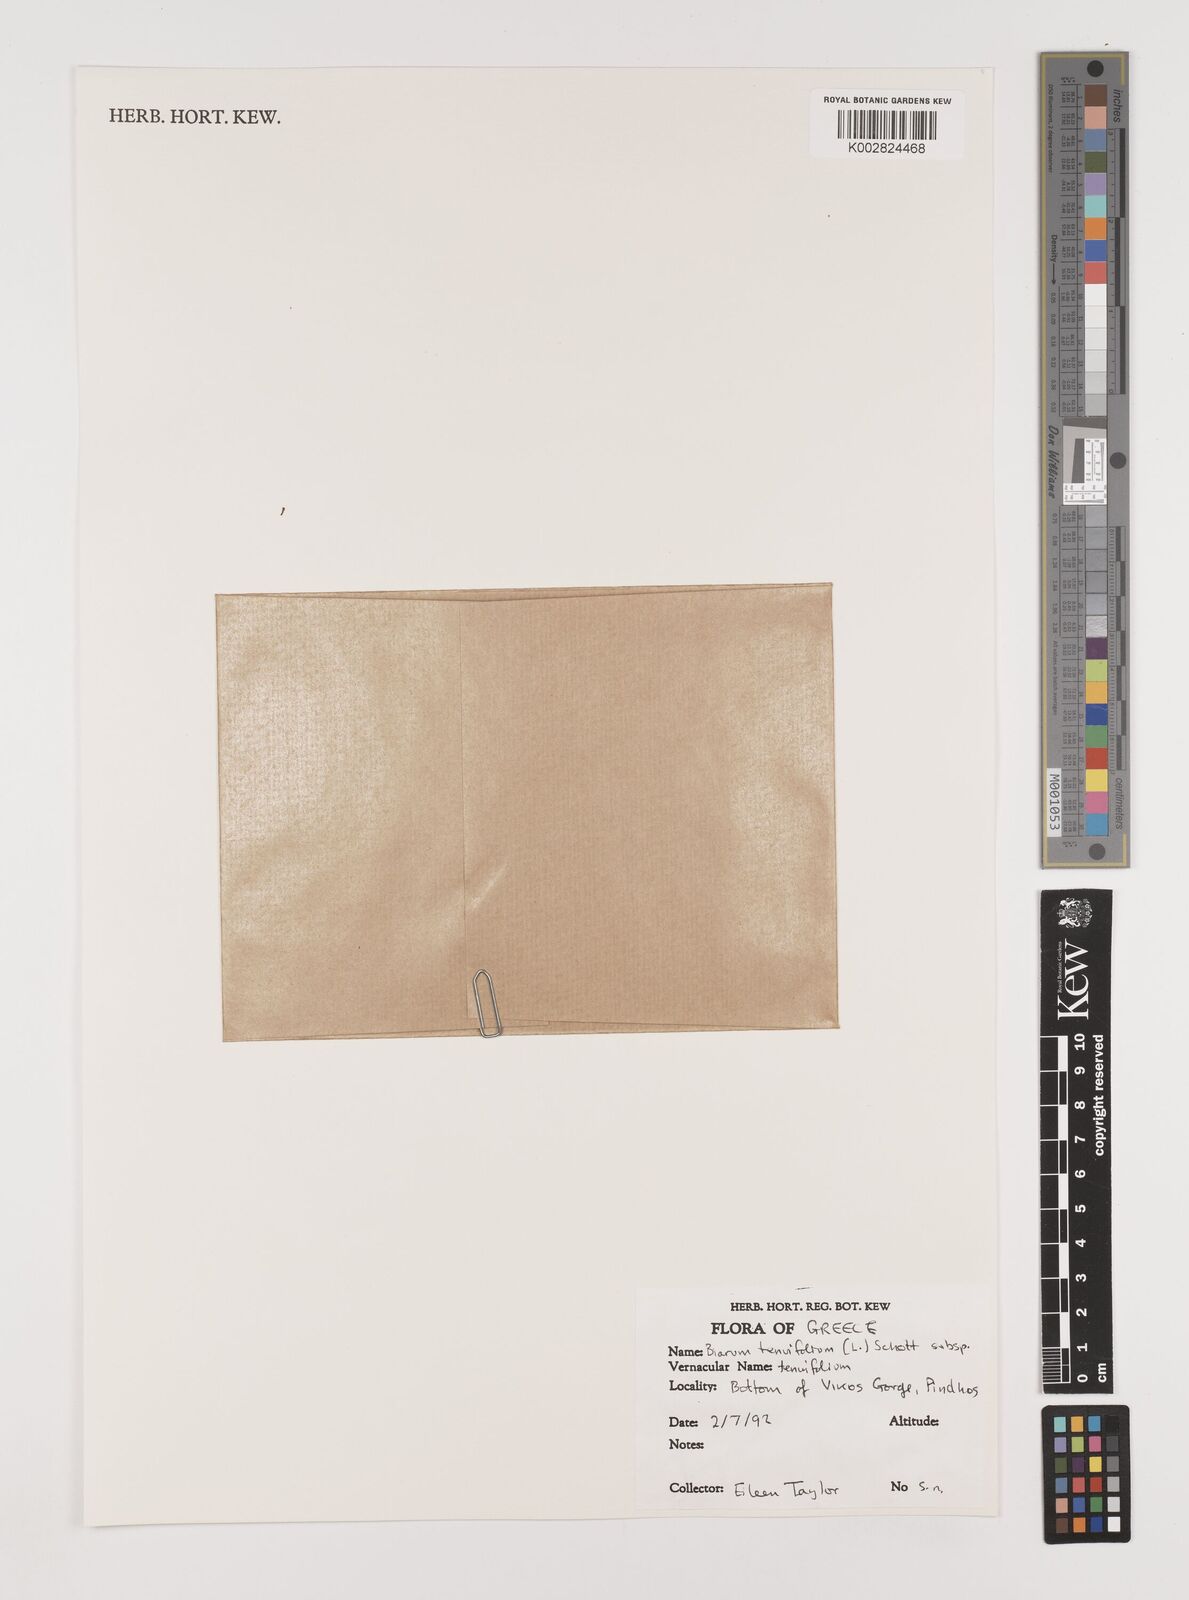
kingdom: Plantae
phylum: Tracheophyta
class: Liliopsida
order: Alismatales
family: Araceae
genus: Biarum
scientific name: Biarum tenuifolium
